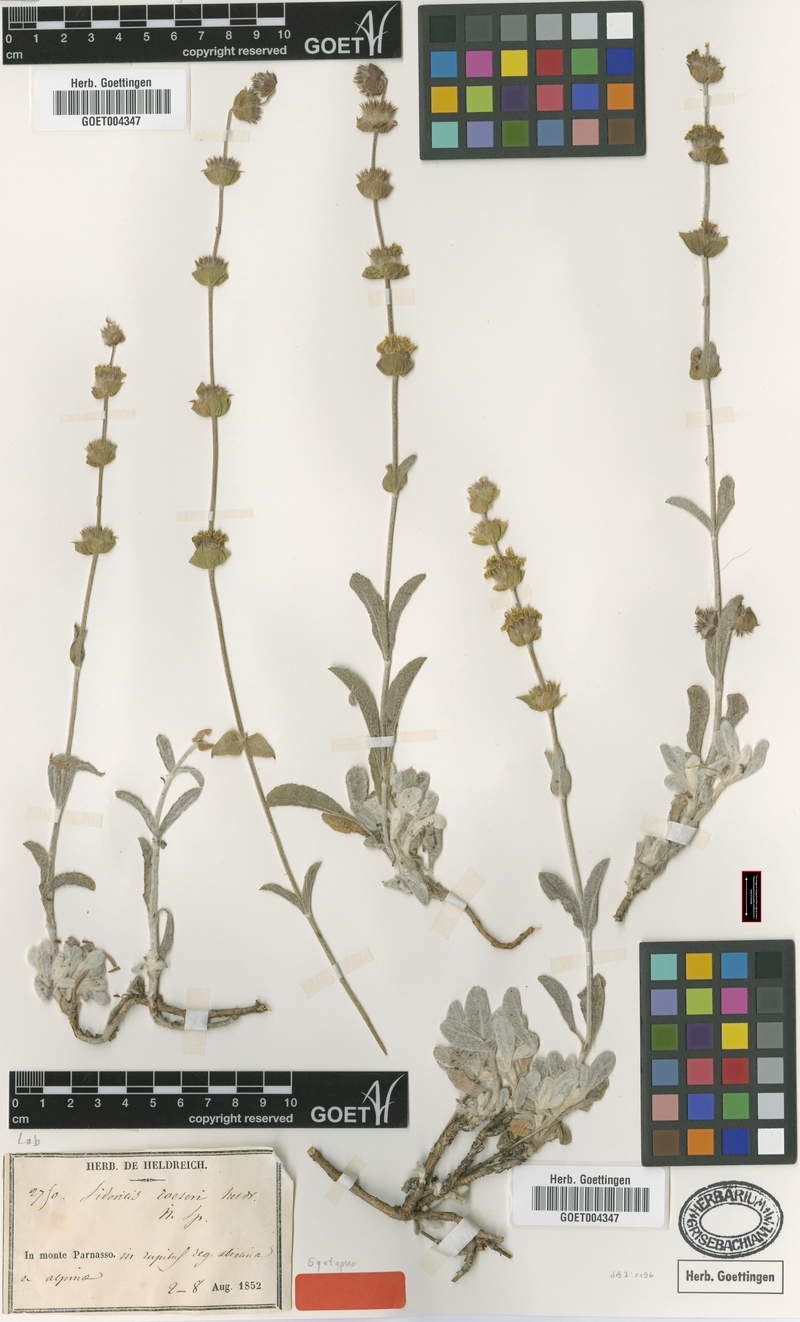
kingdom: Plantae
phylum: Tracheophyta
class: Magnoliopsida
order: Lamiales
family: Lamiaceae
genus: Sideritis
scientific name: Sideritis raeseri
